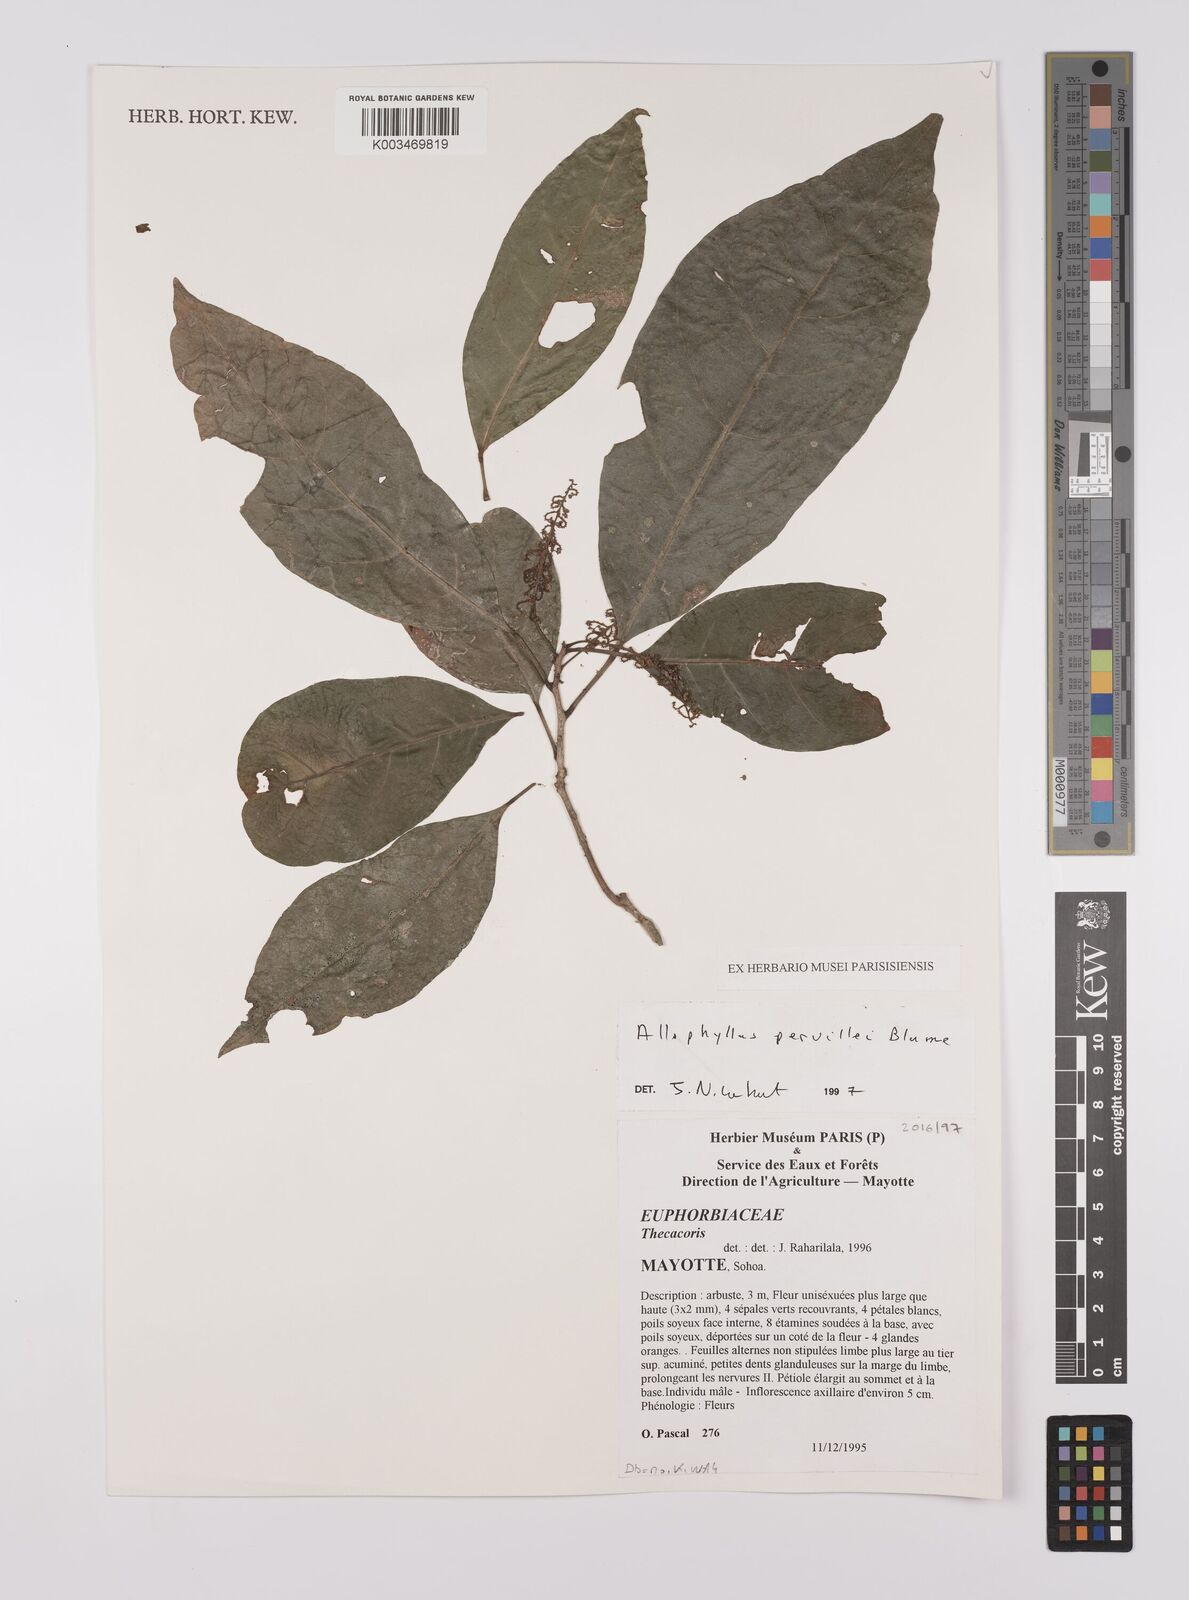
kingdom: Plantae
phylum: Tracheophyta
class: Magnoliopsida
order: Sapindales
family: Sapindaceae
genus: Allophylus
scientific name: Allophylus pervillei
